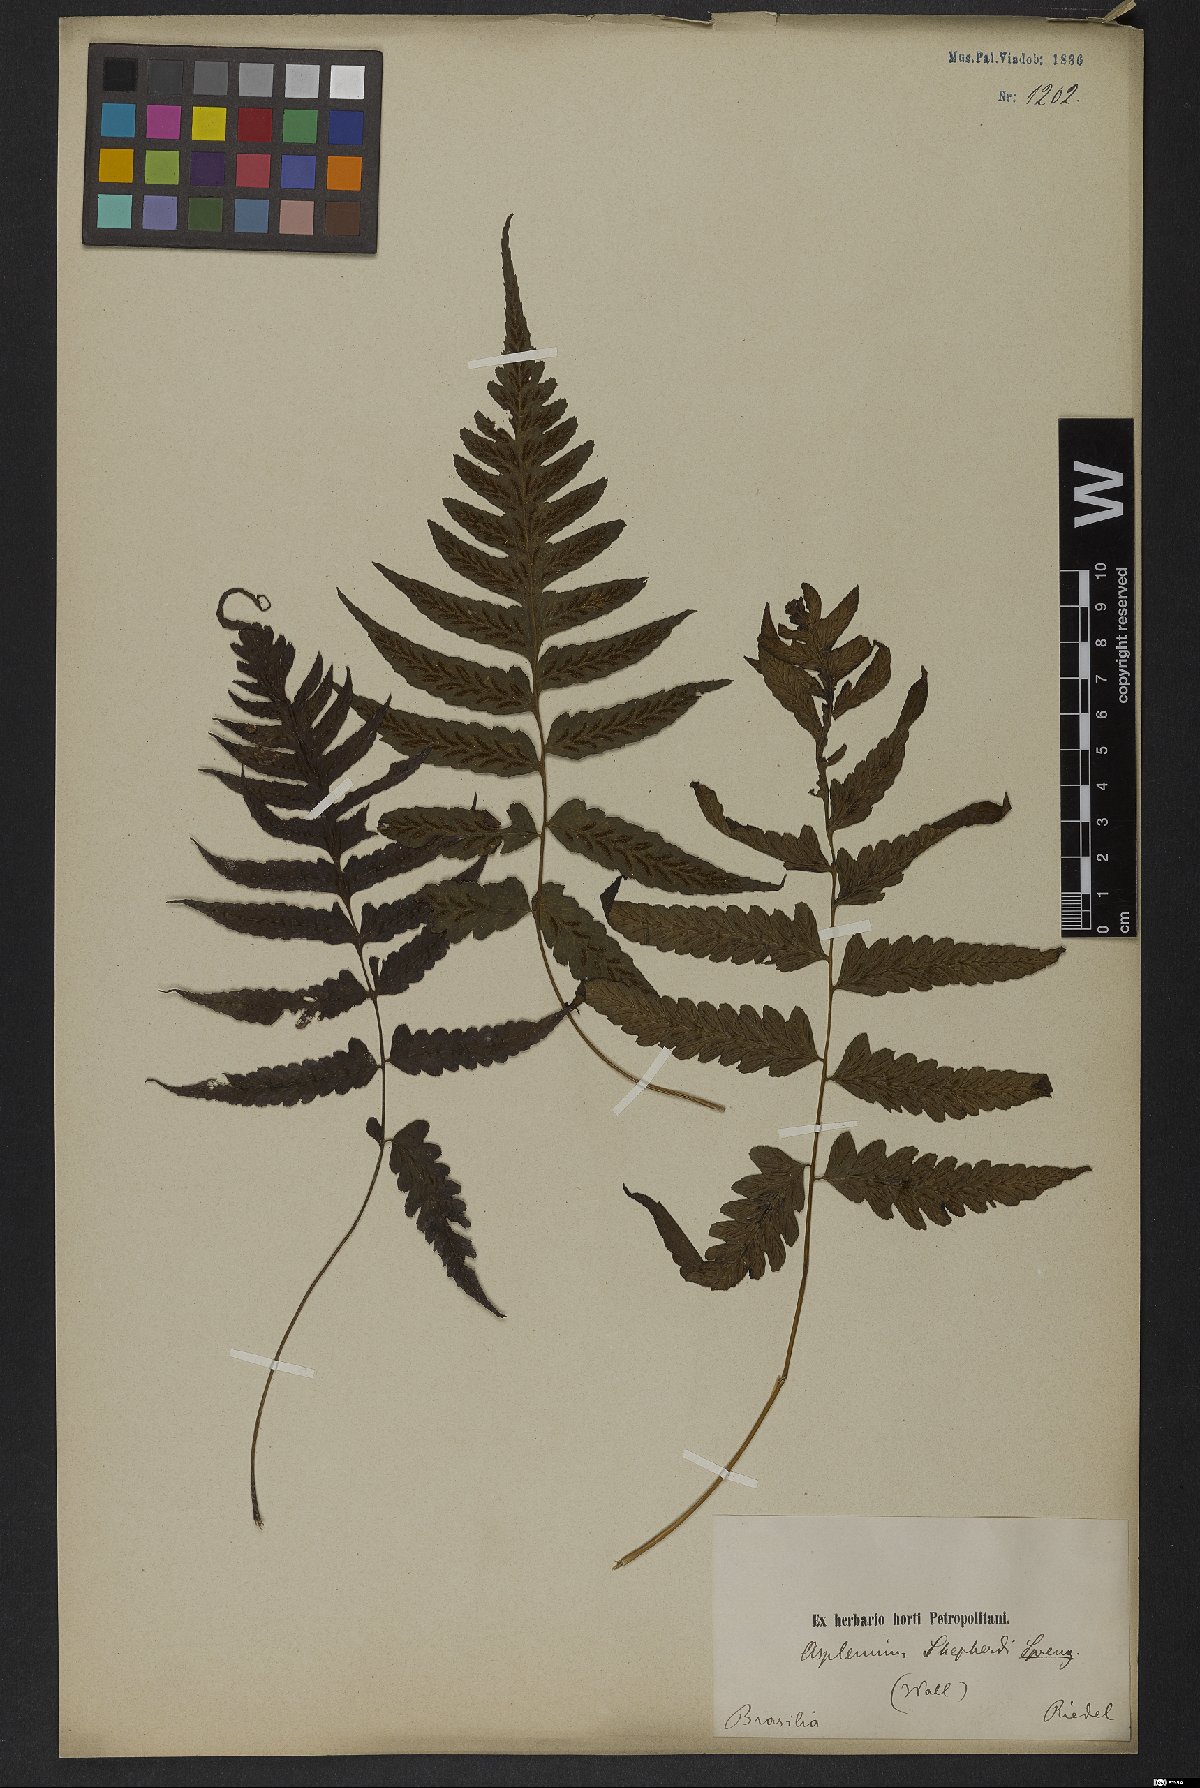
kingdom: Plantae
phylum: Tracheophyta
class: Polypodiopsida
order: Polypodiales
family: Athyriaceae
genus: Diplazium
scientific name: Diplazium cristatum
